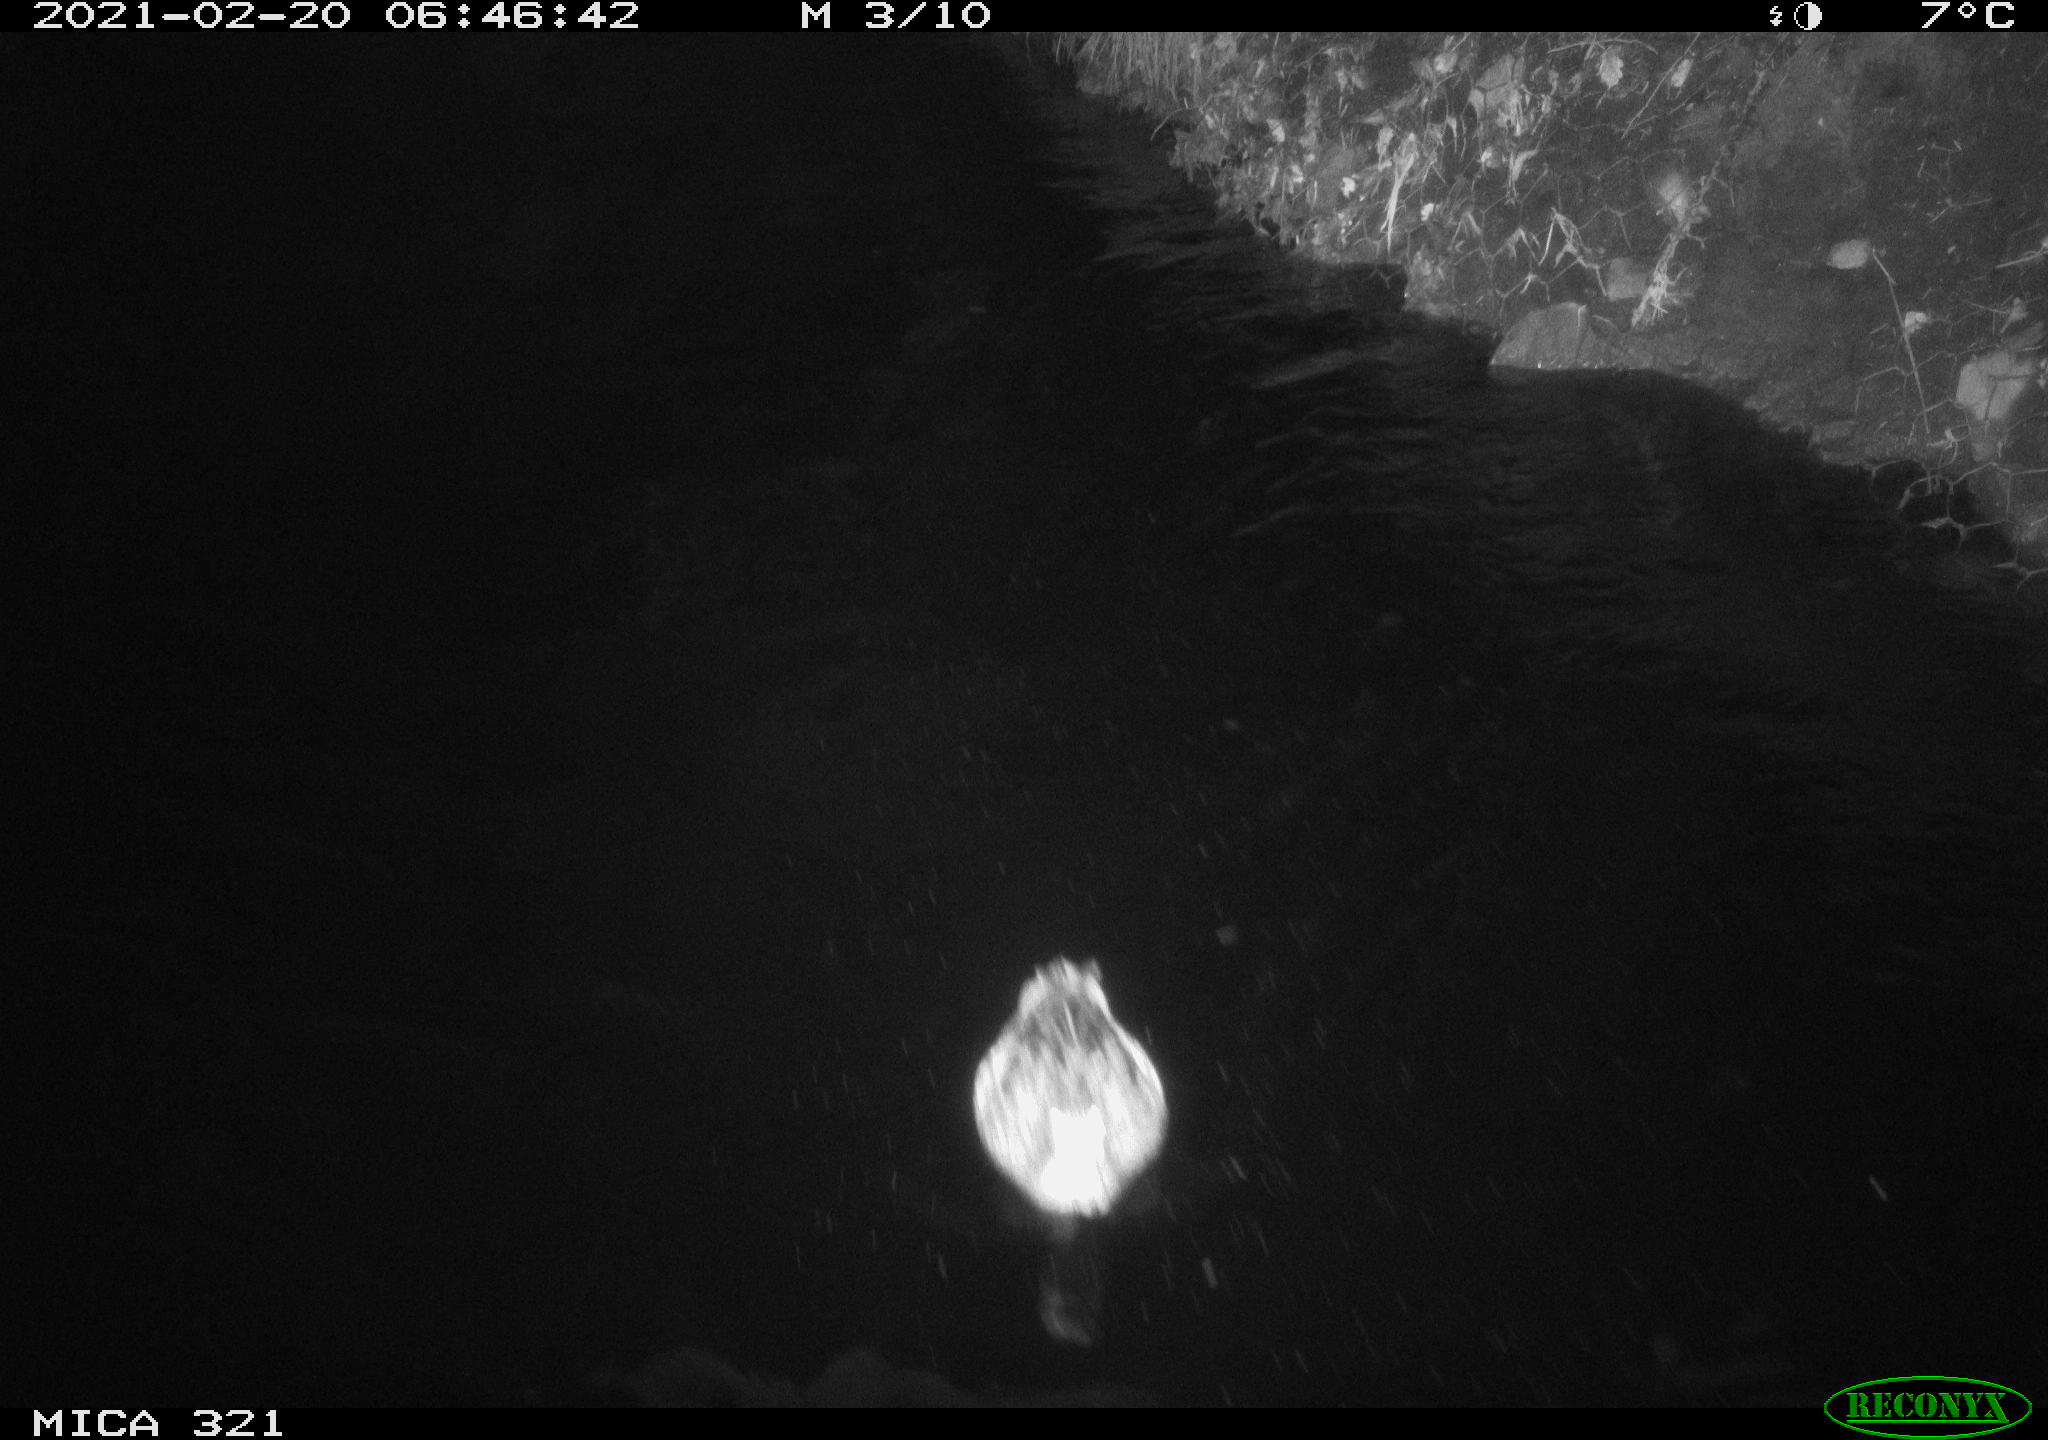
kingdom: Animalia
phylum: Chordata
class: Aves
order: Anseriformes
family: Anatidae
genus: Anas
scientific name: Anas platyrhynchos
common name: Mallard
